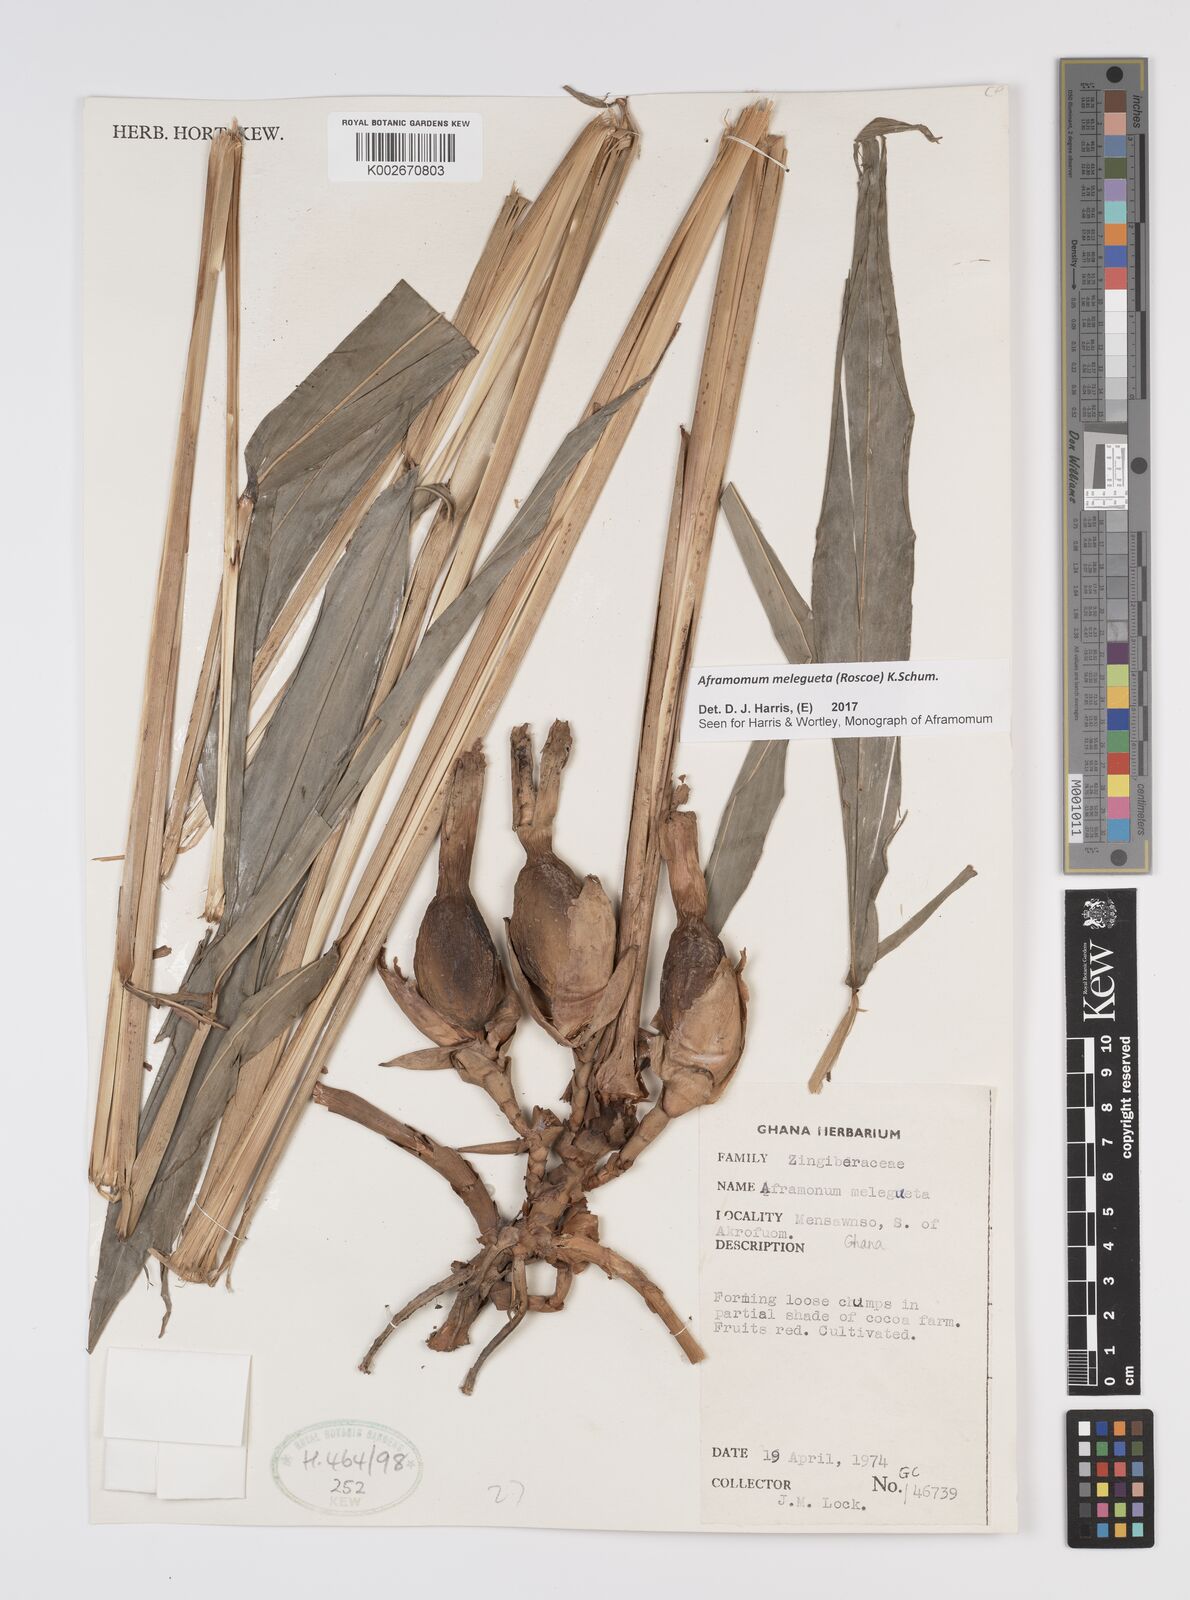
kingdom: Plantae
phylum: Tracheophyta
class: Liliopsida
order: Zingiberales
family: Zingiberaceae
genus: Aframomum
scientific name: Aframomum melegueta
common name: Grains of paradise
